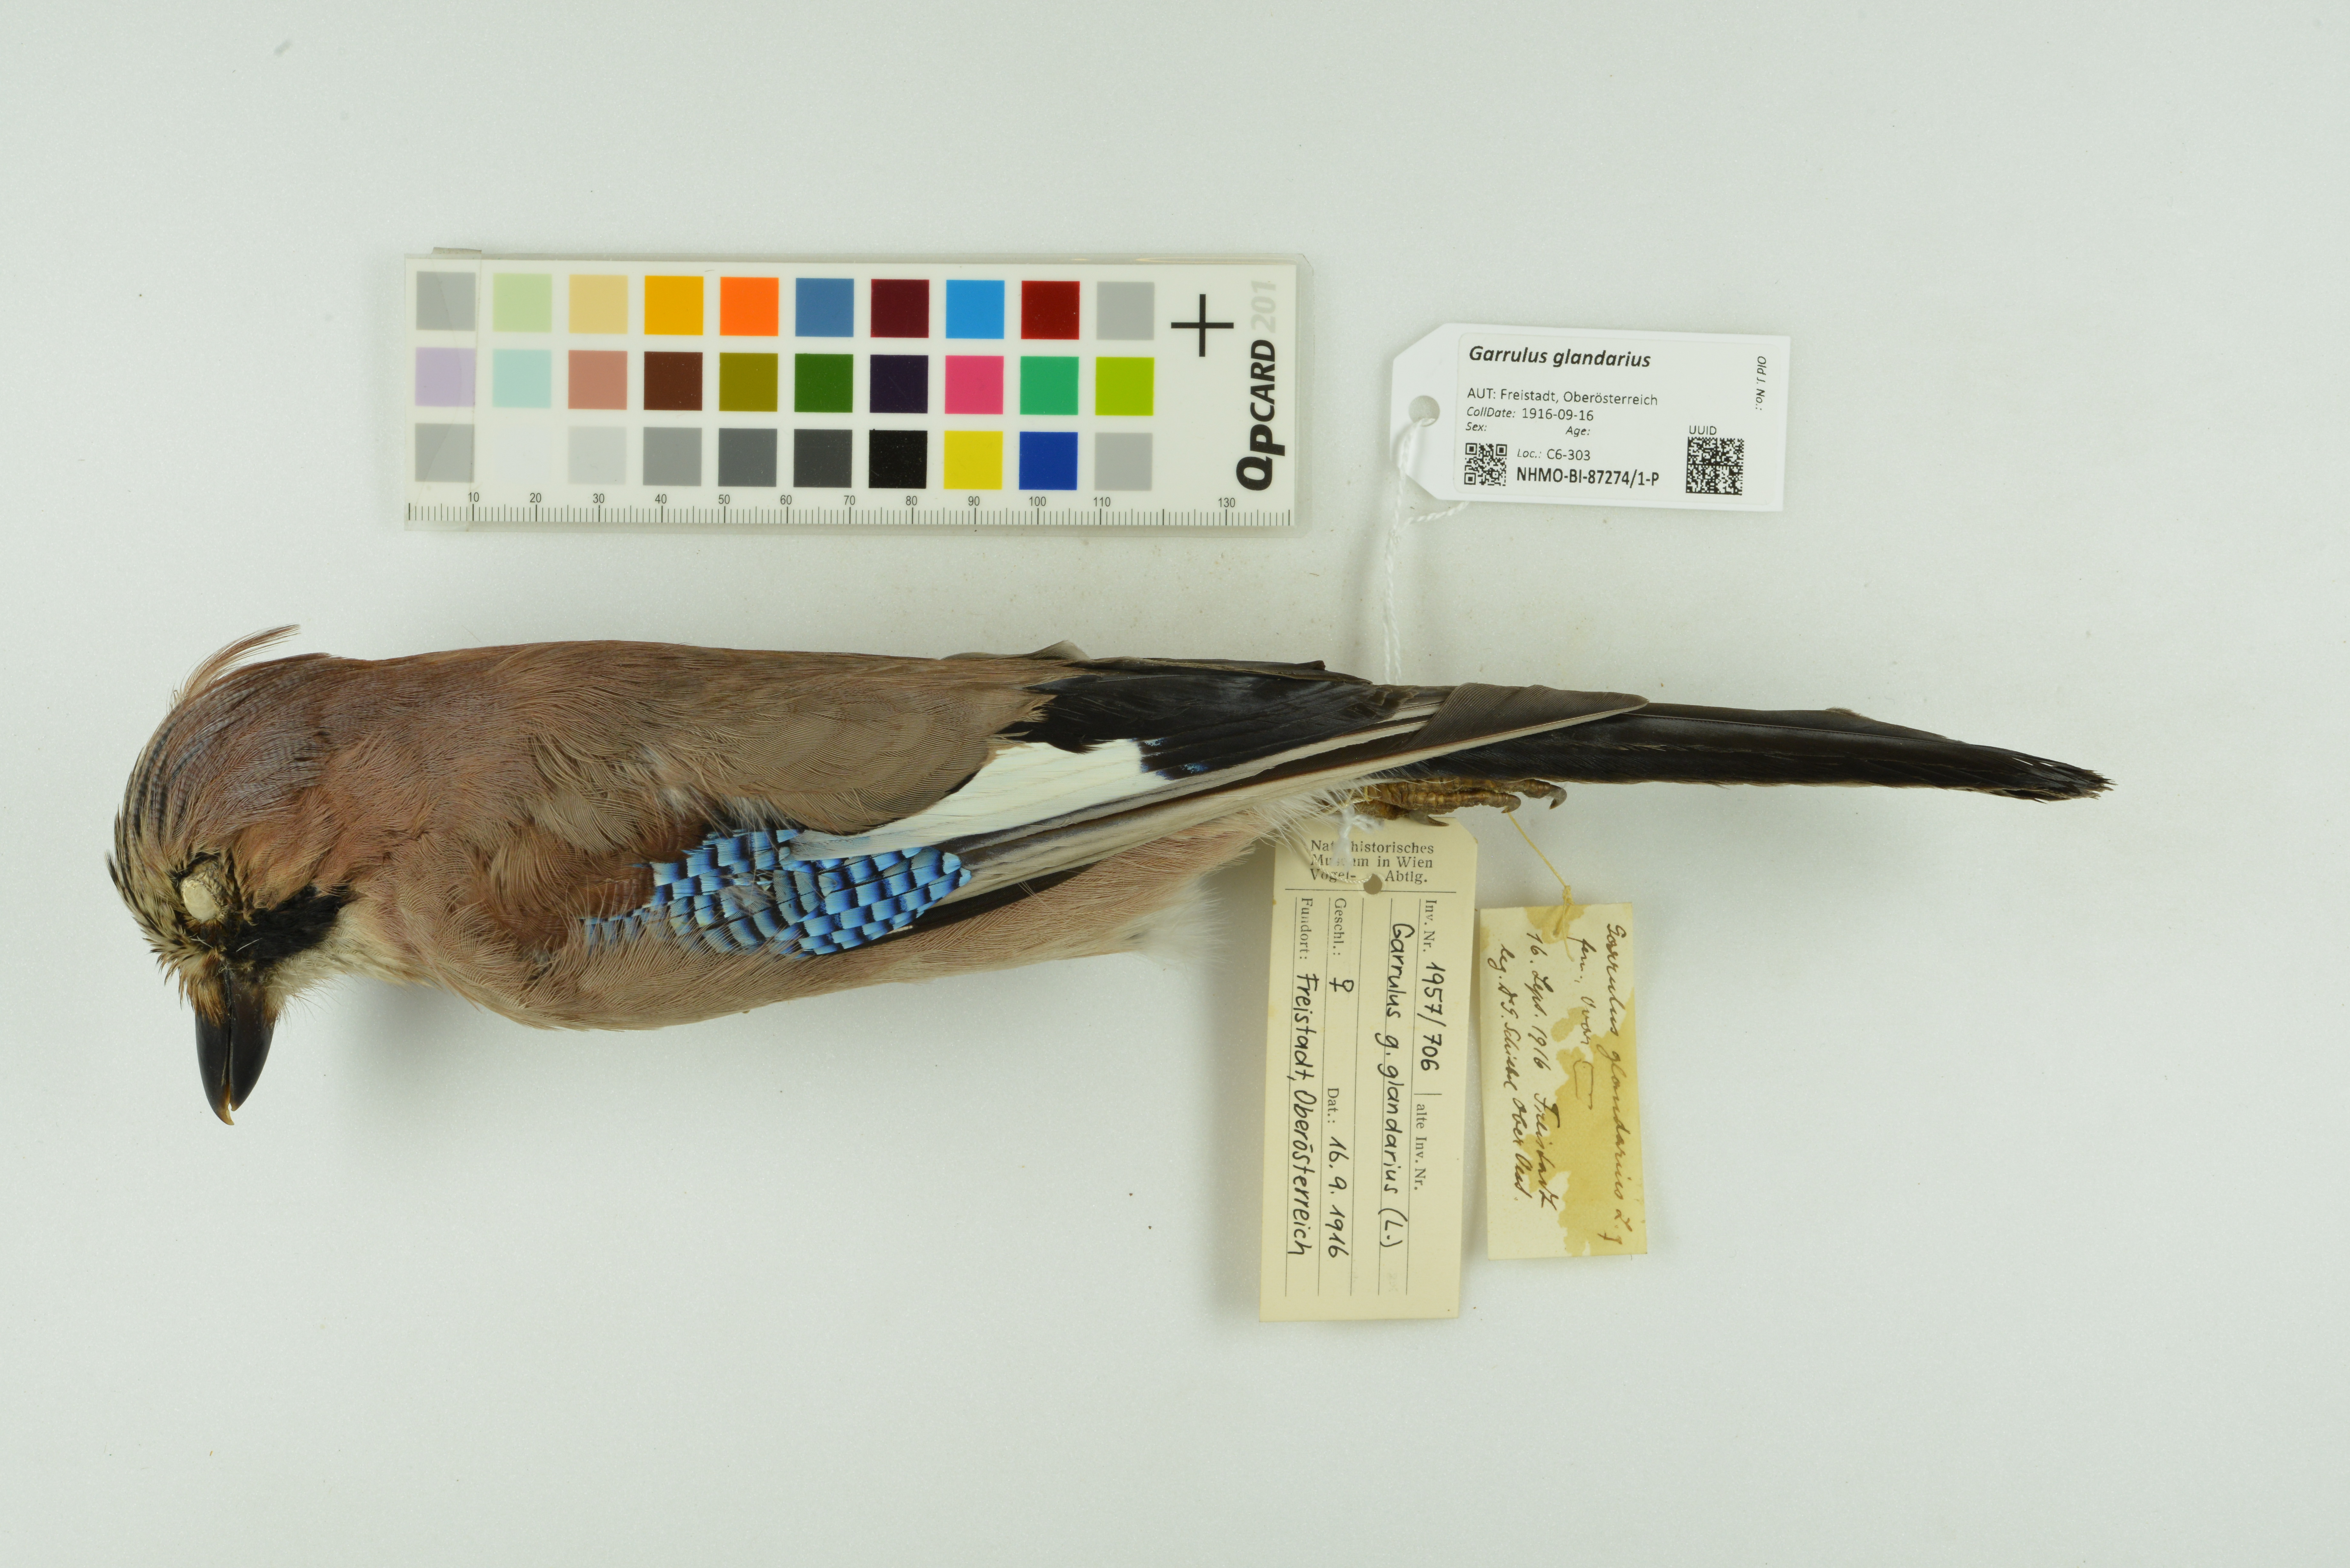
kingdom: Animalia
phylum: Chordata
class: Aves
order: Passeriformes
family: Corvidae
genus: Garrulus
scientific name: Garrulus glandarius
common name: Eurasian jay
